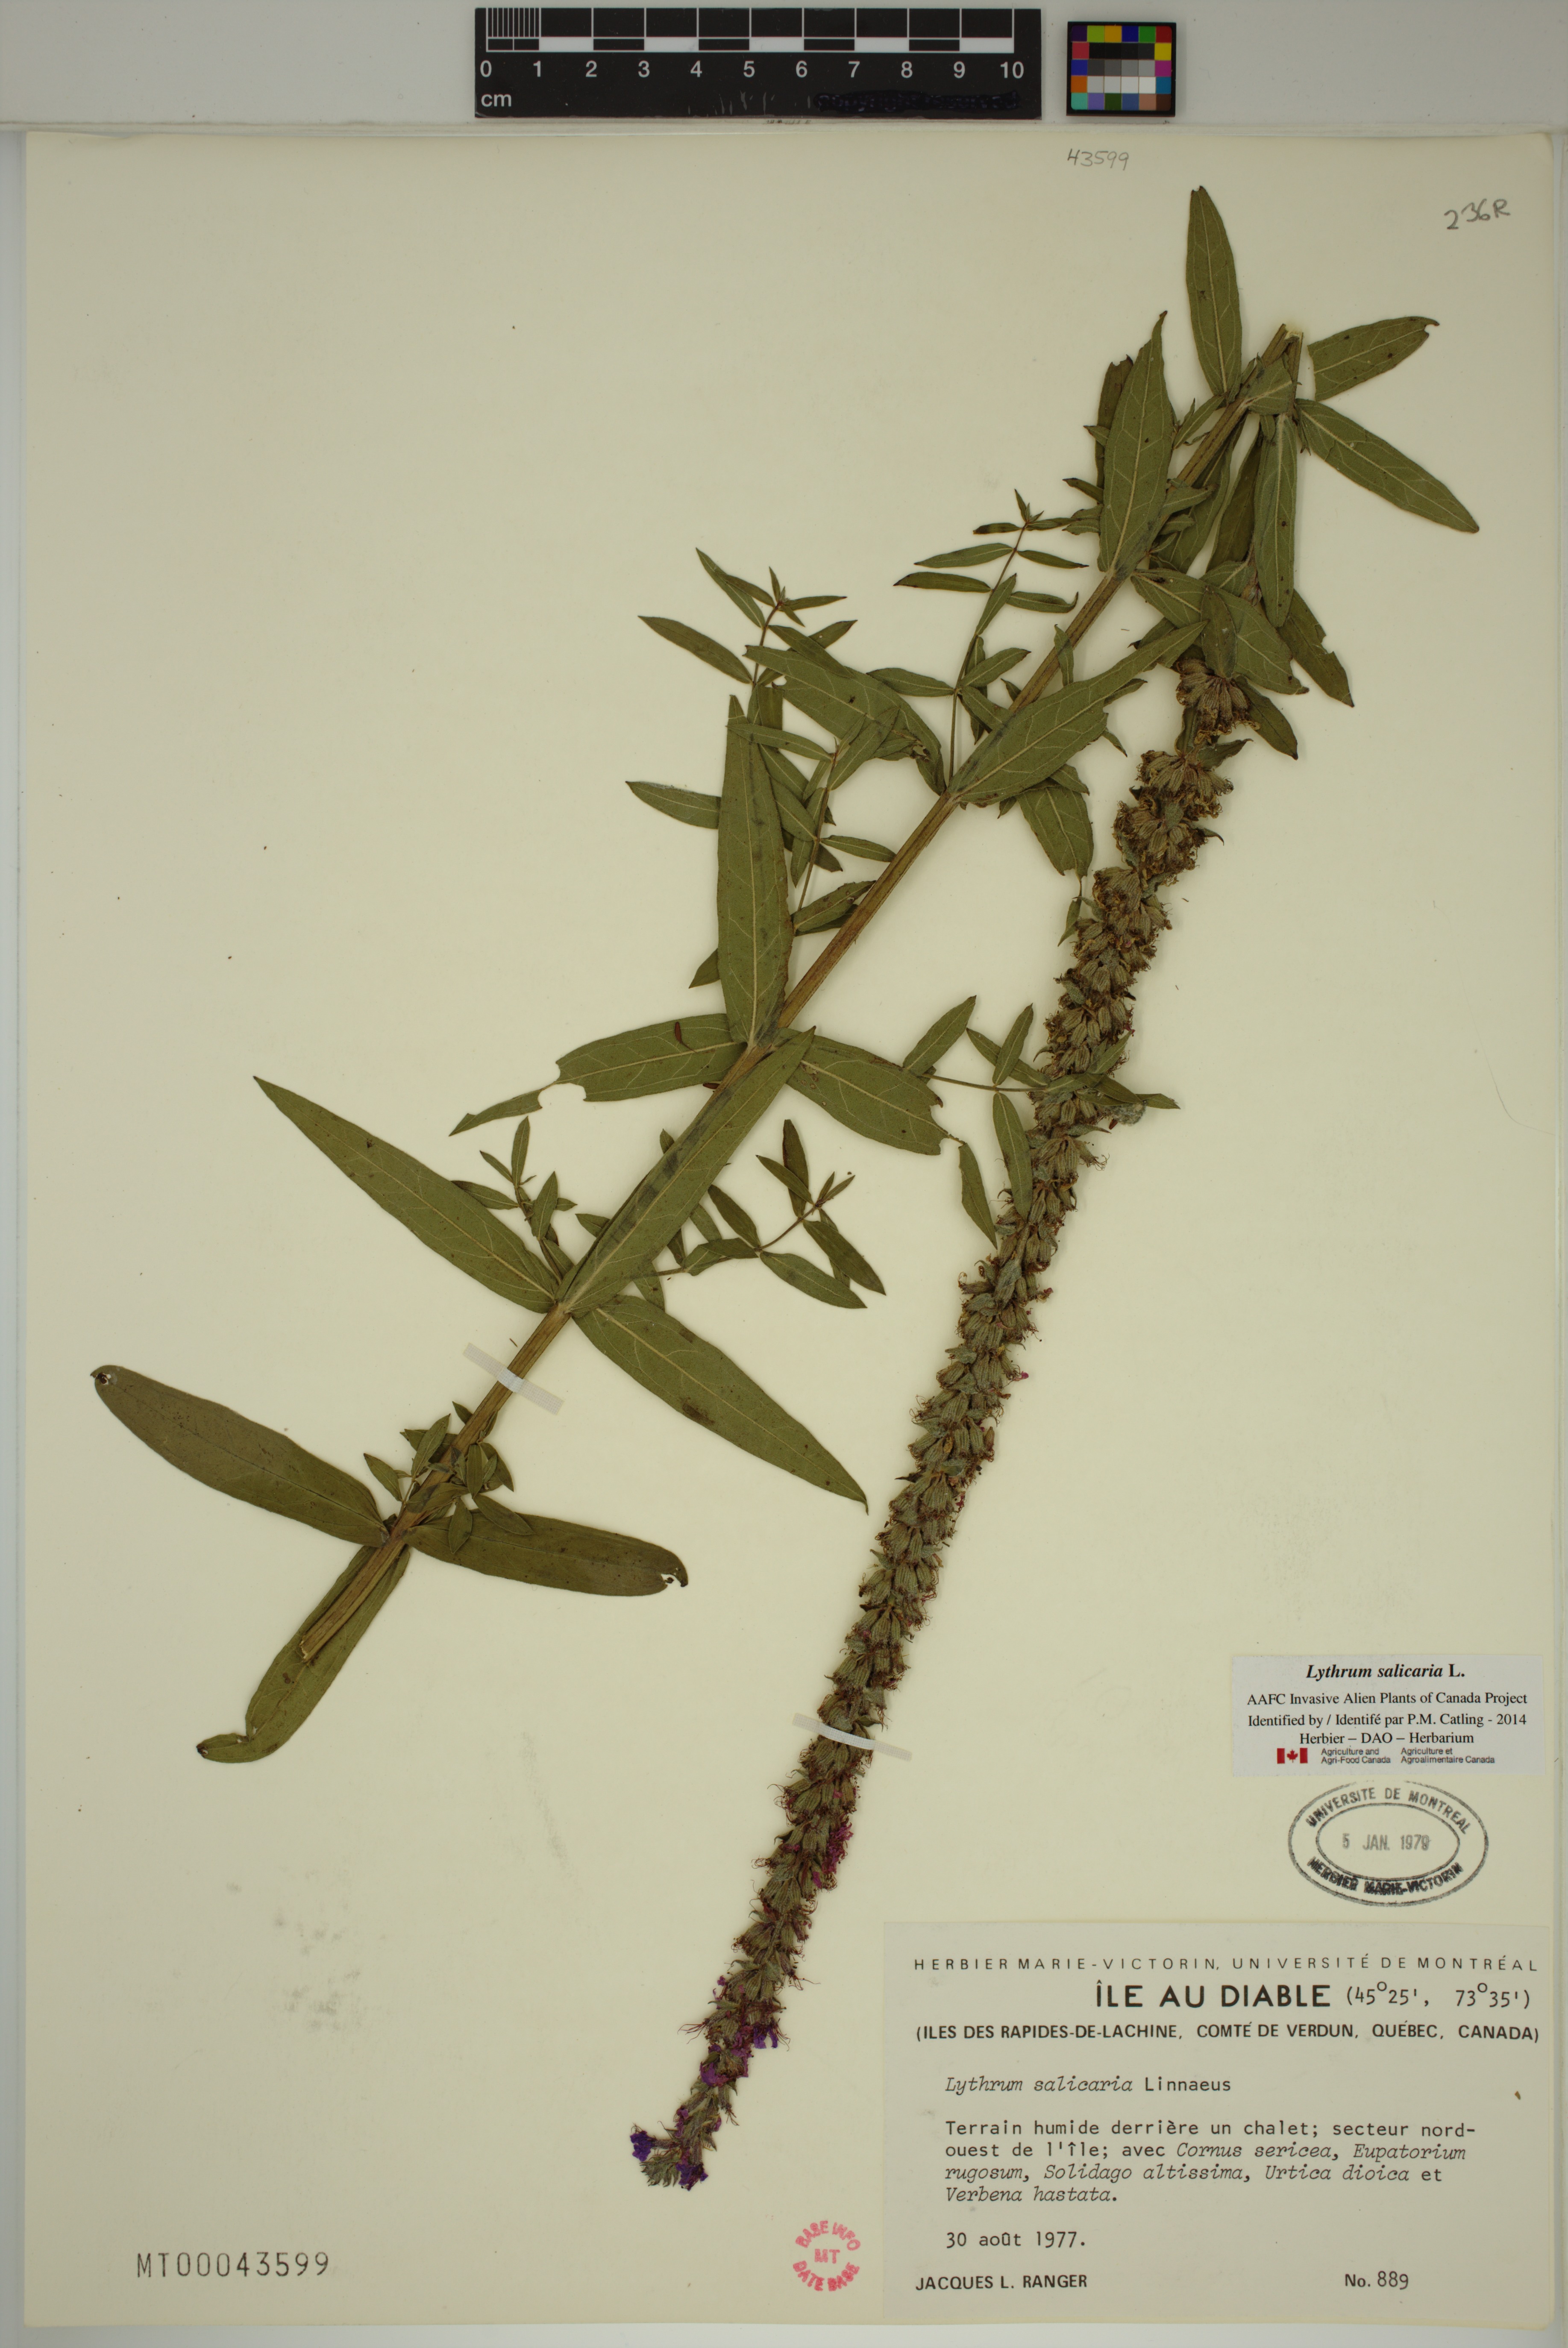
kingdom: Plantae
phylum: Tracheophyta
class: Magnoliopsida
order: Myrtales
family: Lythraceae
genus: Lythrum
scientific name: Lythrum salicaria
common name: Purple loosestrife
